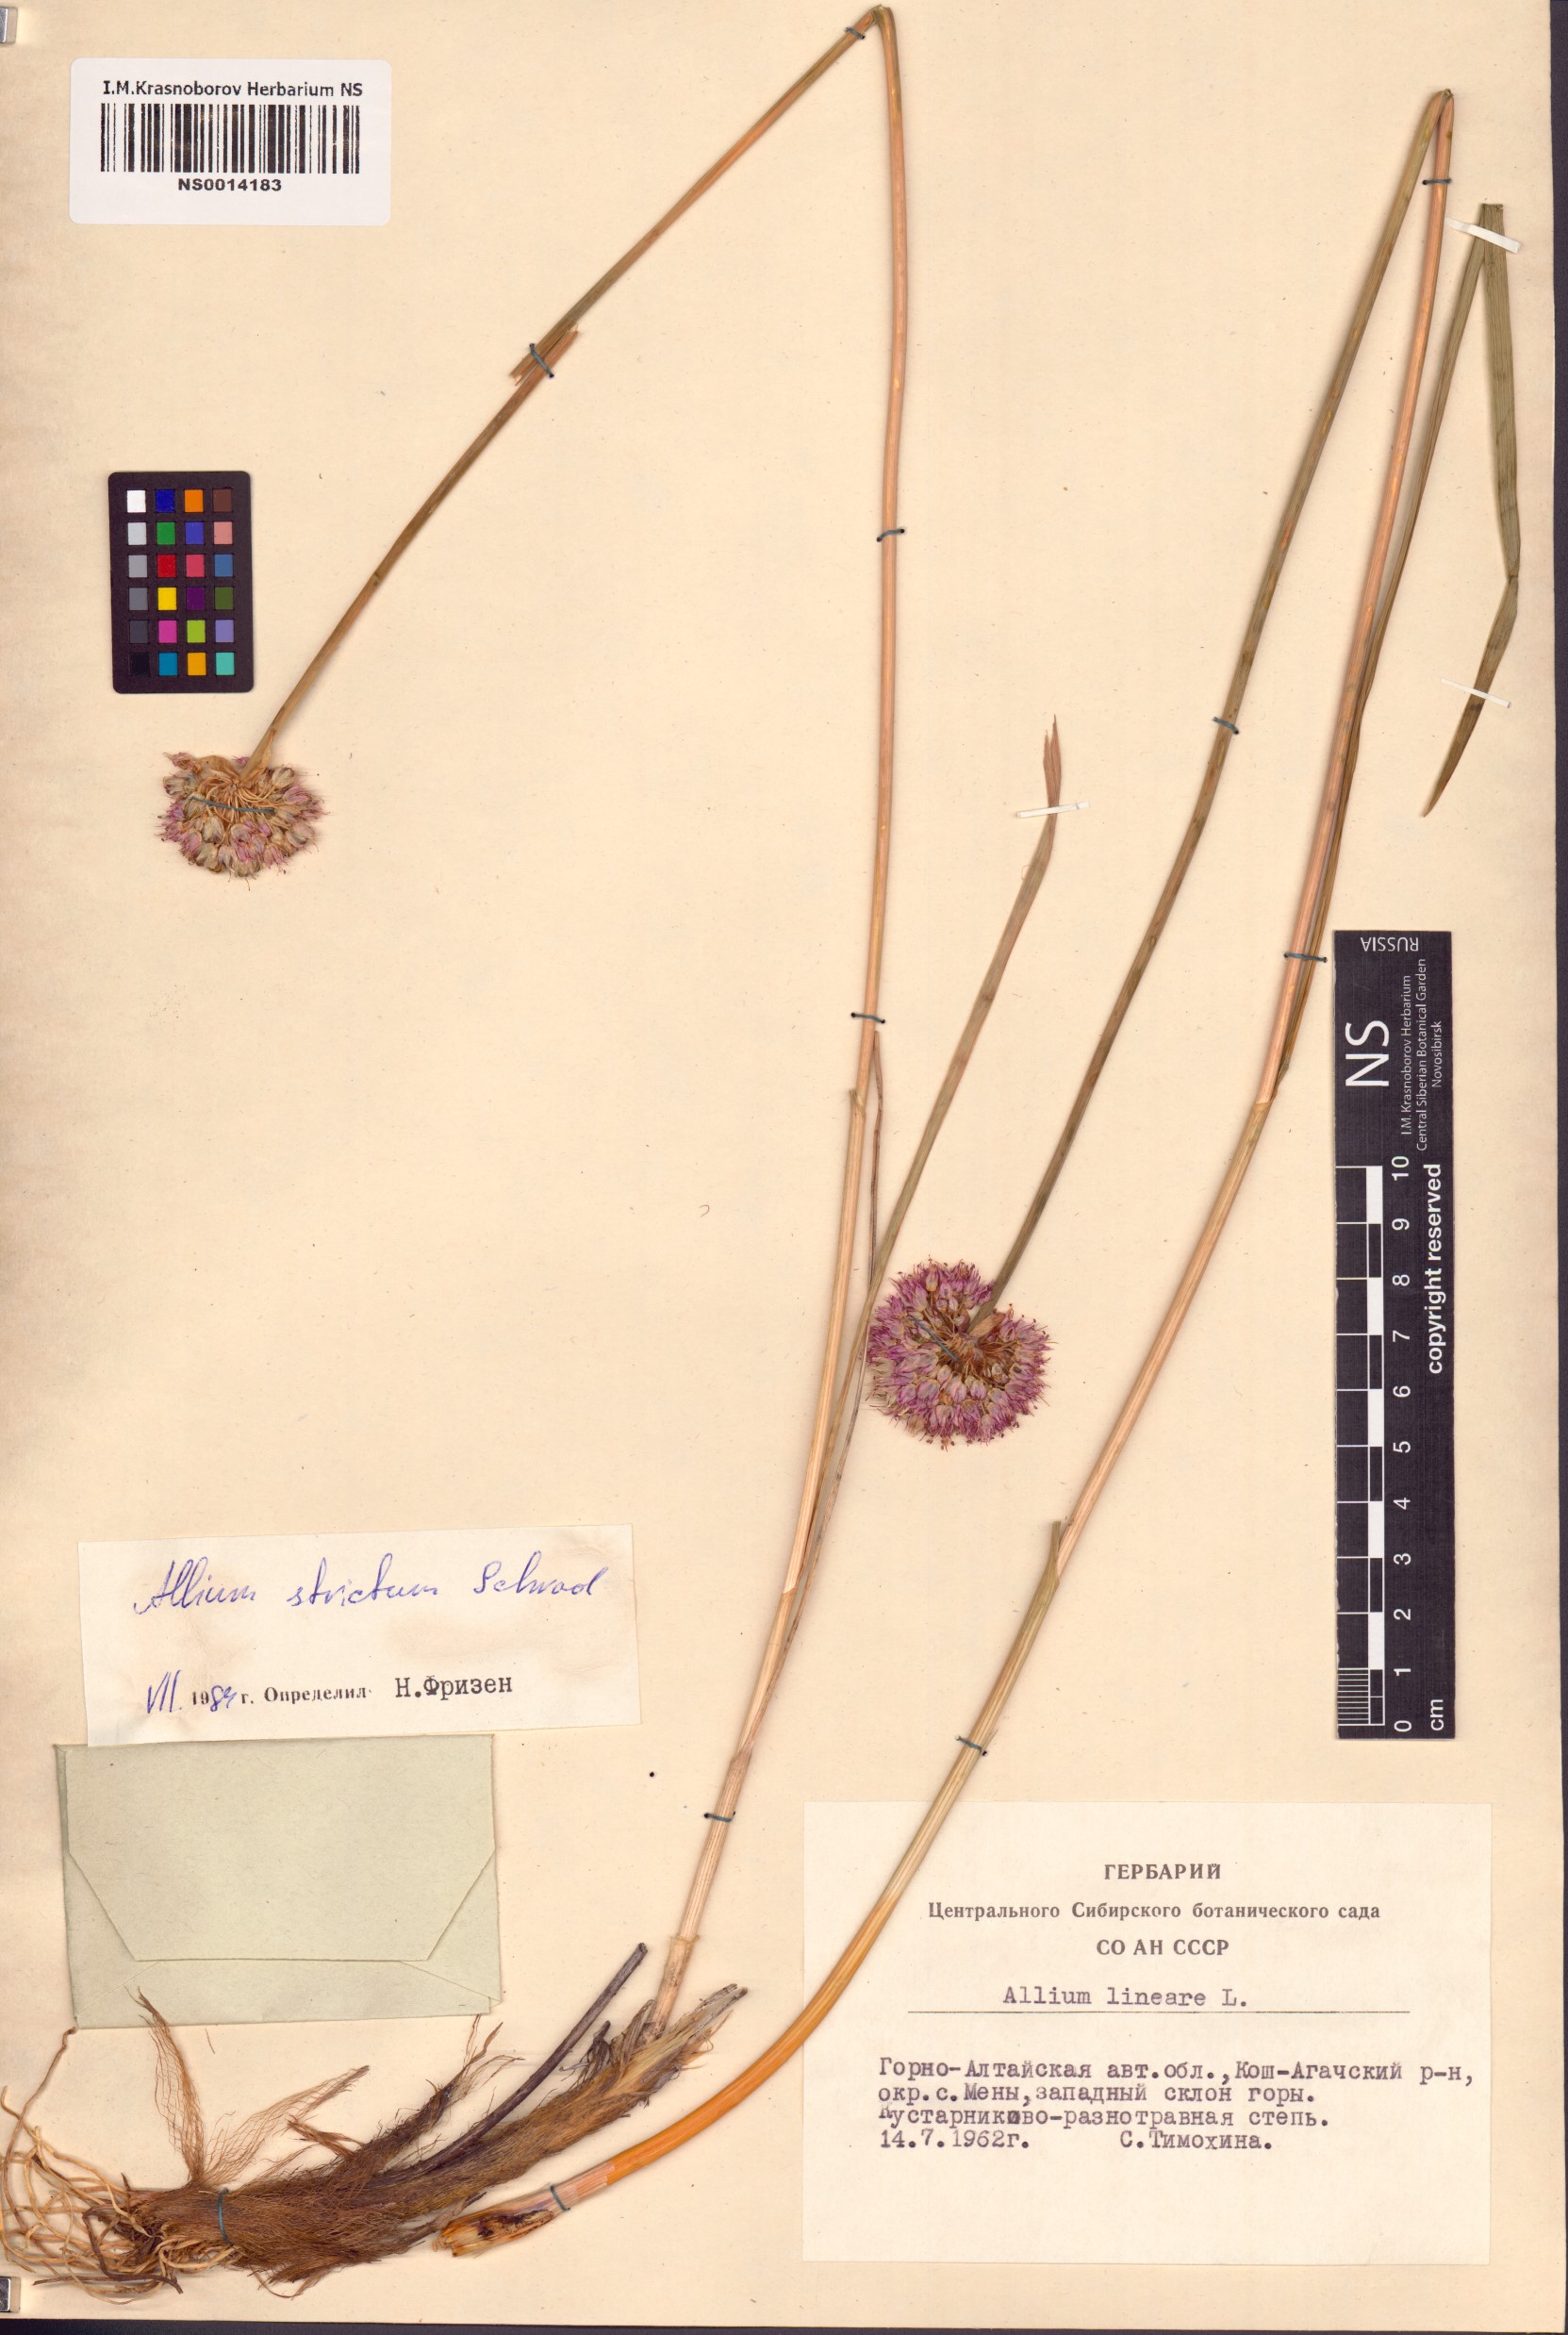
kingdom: Plantae
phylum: Tracheophyta
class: Liliopsida
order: Asparagales
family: Amaryllidaceae
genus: Allium
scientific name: Allium strictum
